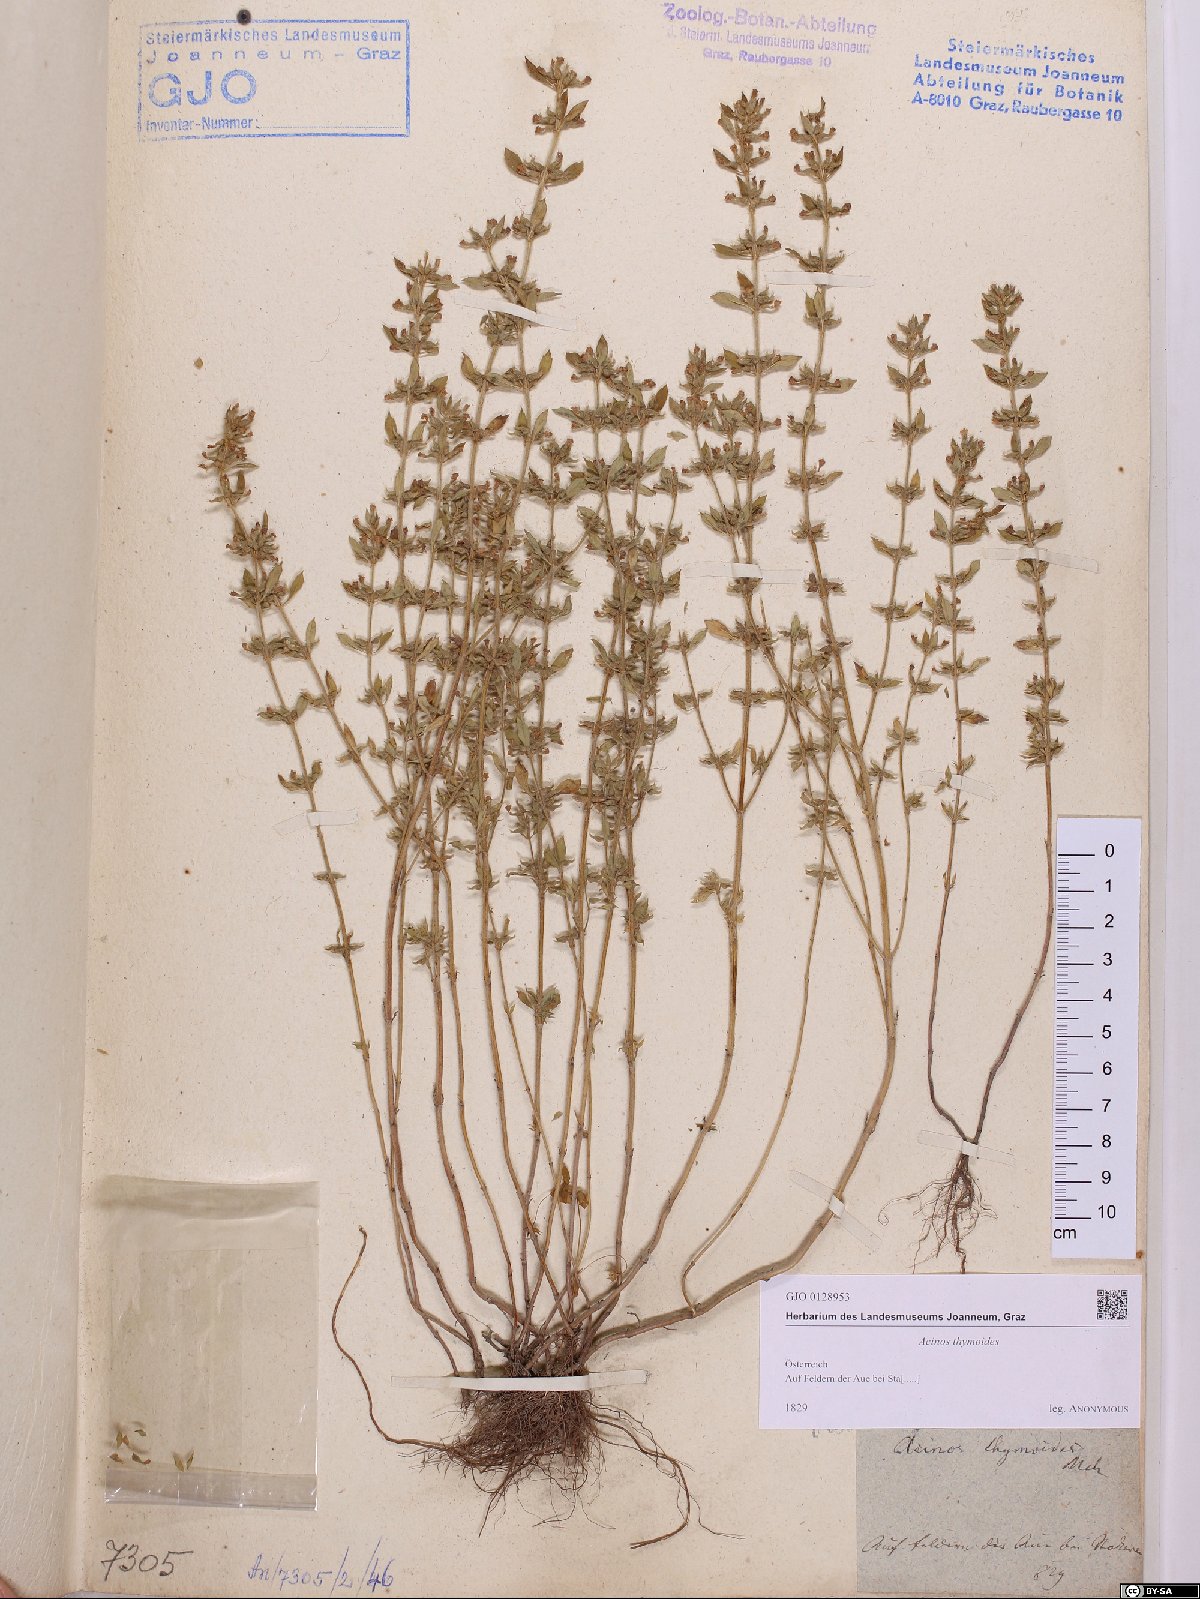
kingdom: Plantae
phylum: Tracheophyta
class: Magnoliopsida
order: Lamiales
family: Lamiaceae
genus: Clinopodium
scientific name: Clinopodium acinos
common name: Basil thyme
